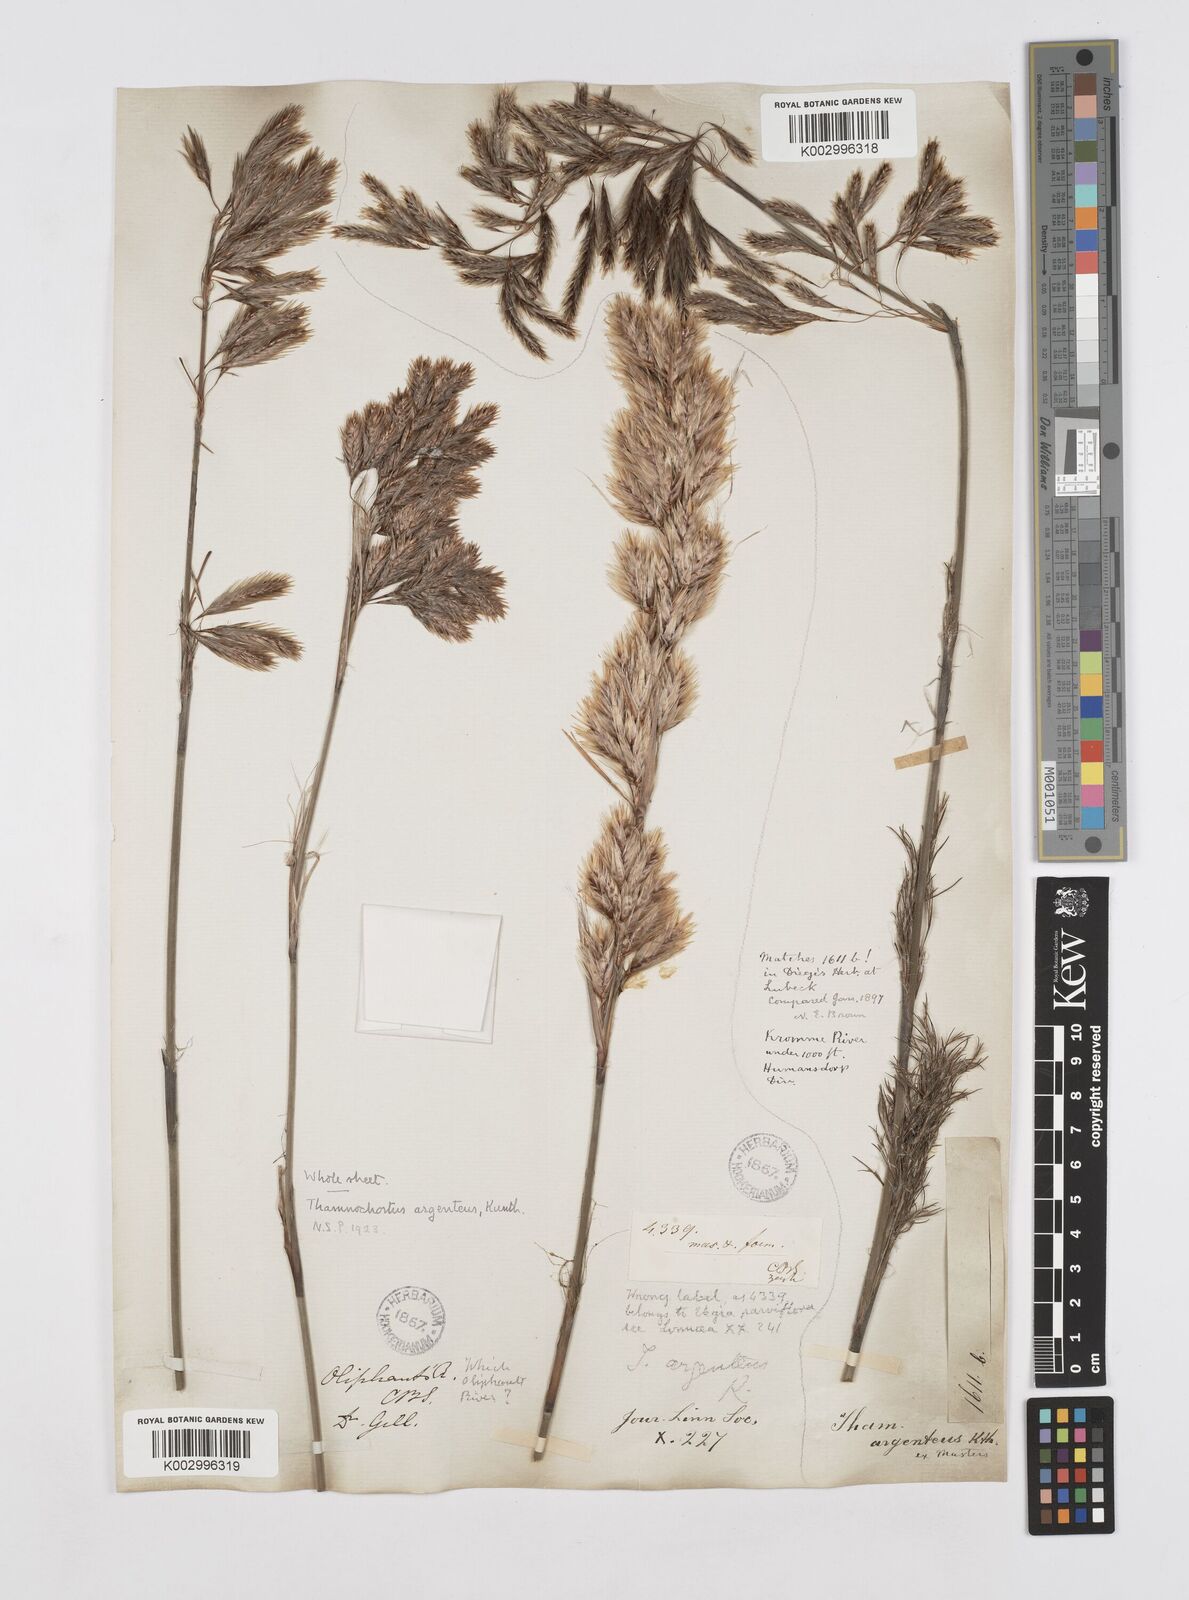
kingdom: Plantae
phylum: Tracheophyta
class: Liliopsida
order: Poales
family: Restionaceae
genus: Hypodiscus
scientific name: Hypodiscus argenteus
